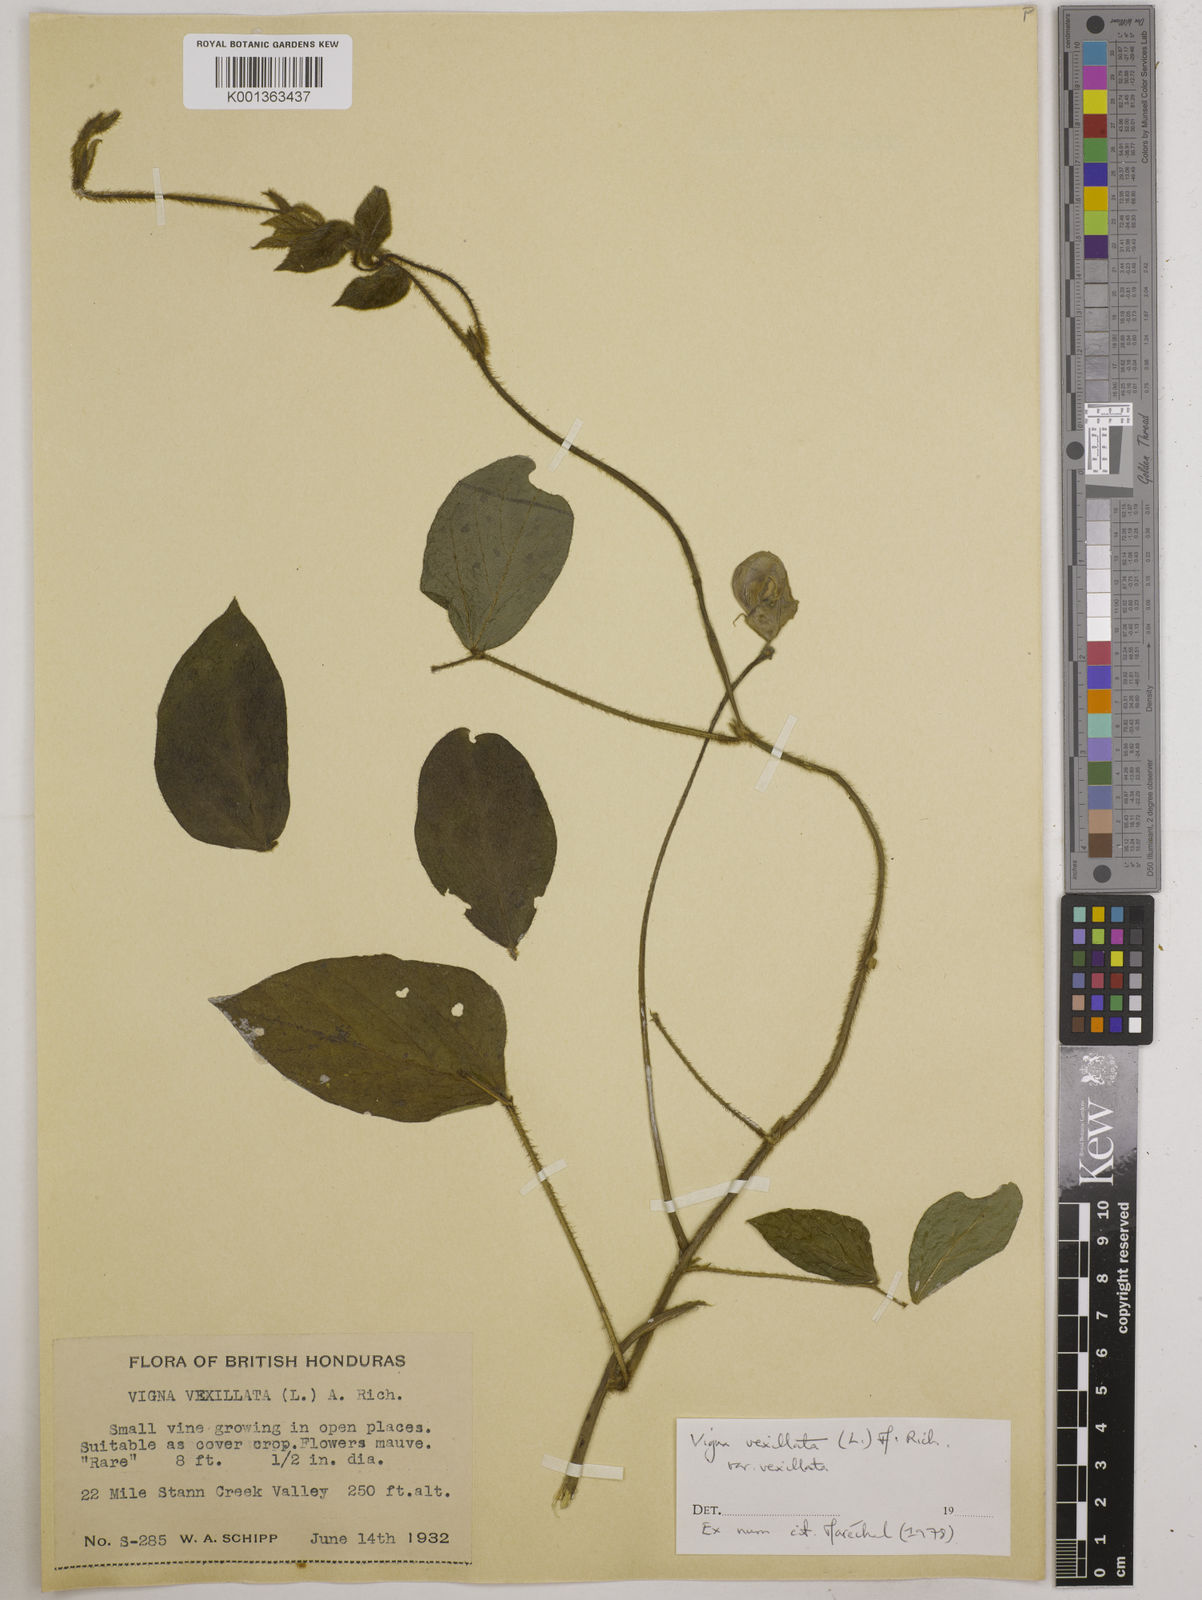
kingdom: Plantae
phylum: Tracheophyta
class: Magnoliopsida
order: Fabales
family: Fabaceae
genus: Vigna
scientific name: Vigna vexillata
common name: Zombi pea
